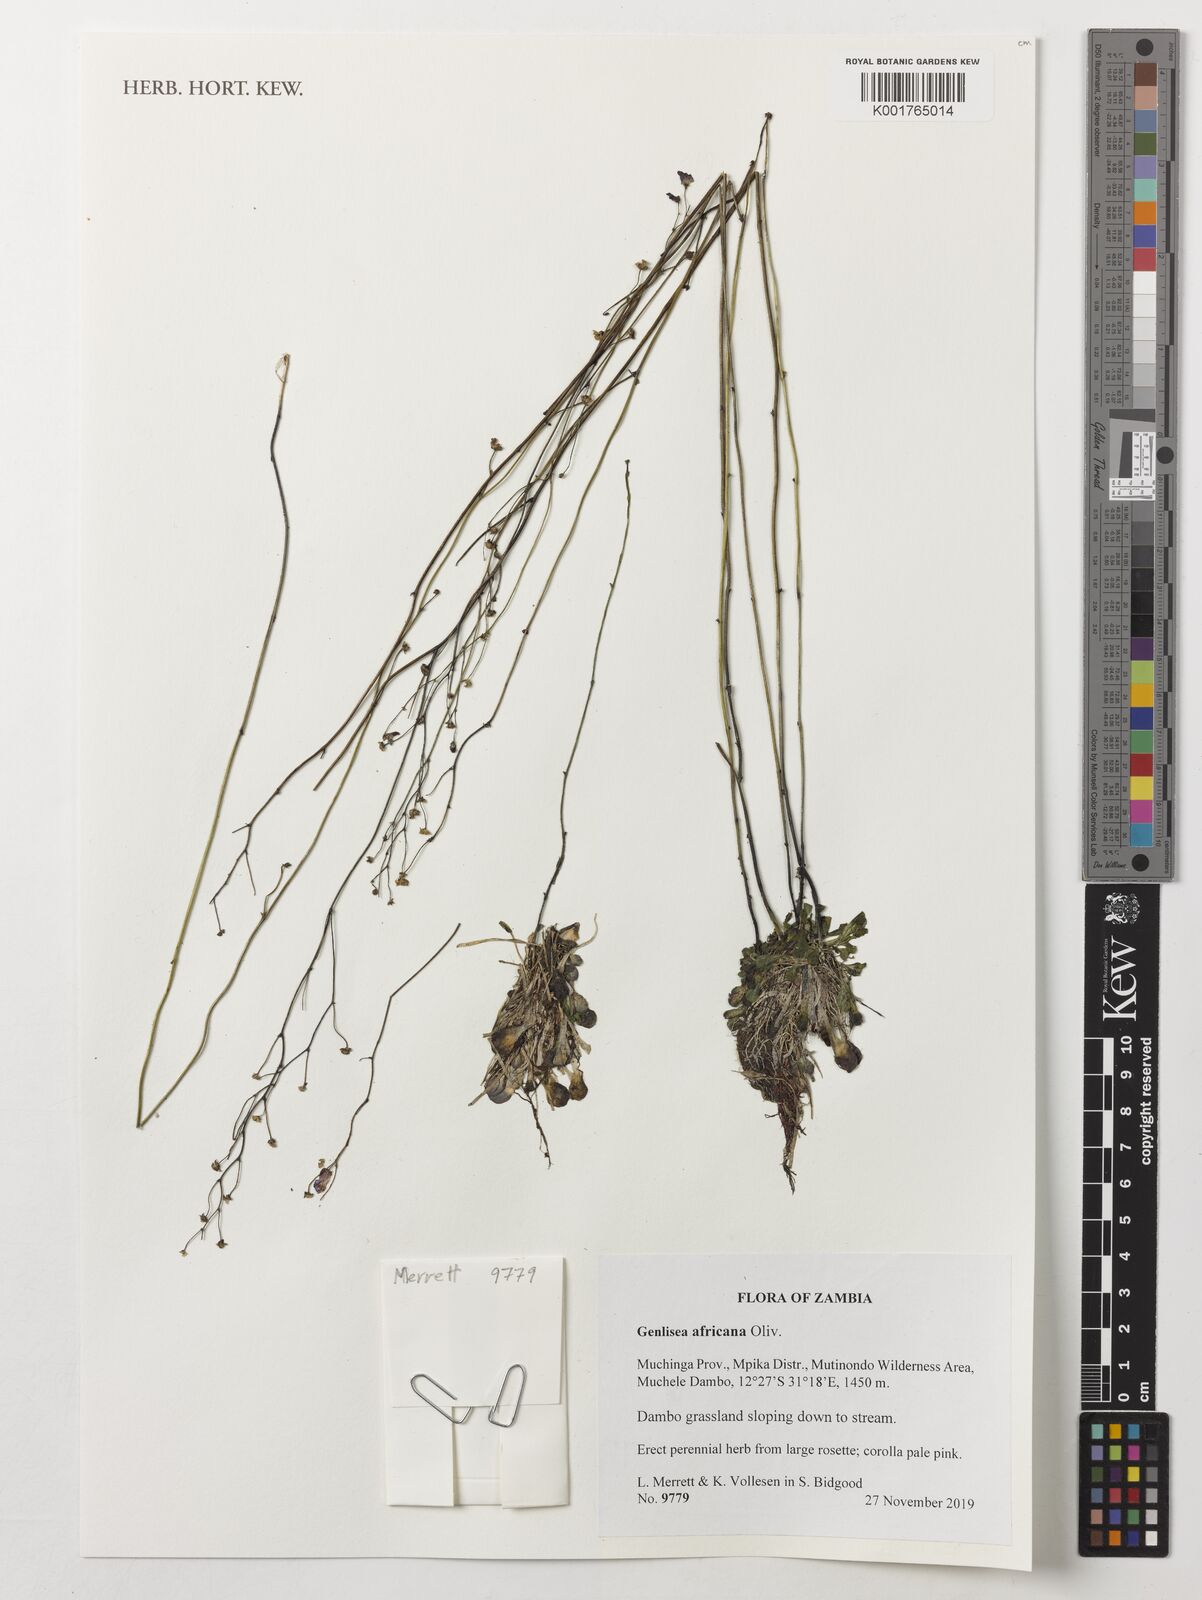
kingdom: Plantae
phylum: Tracheophyta
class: Magnoliopsida
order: Lamiales
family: Lentibulariaceae
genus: Genlisea
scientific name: Genlisea africana
